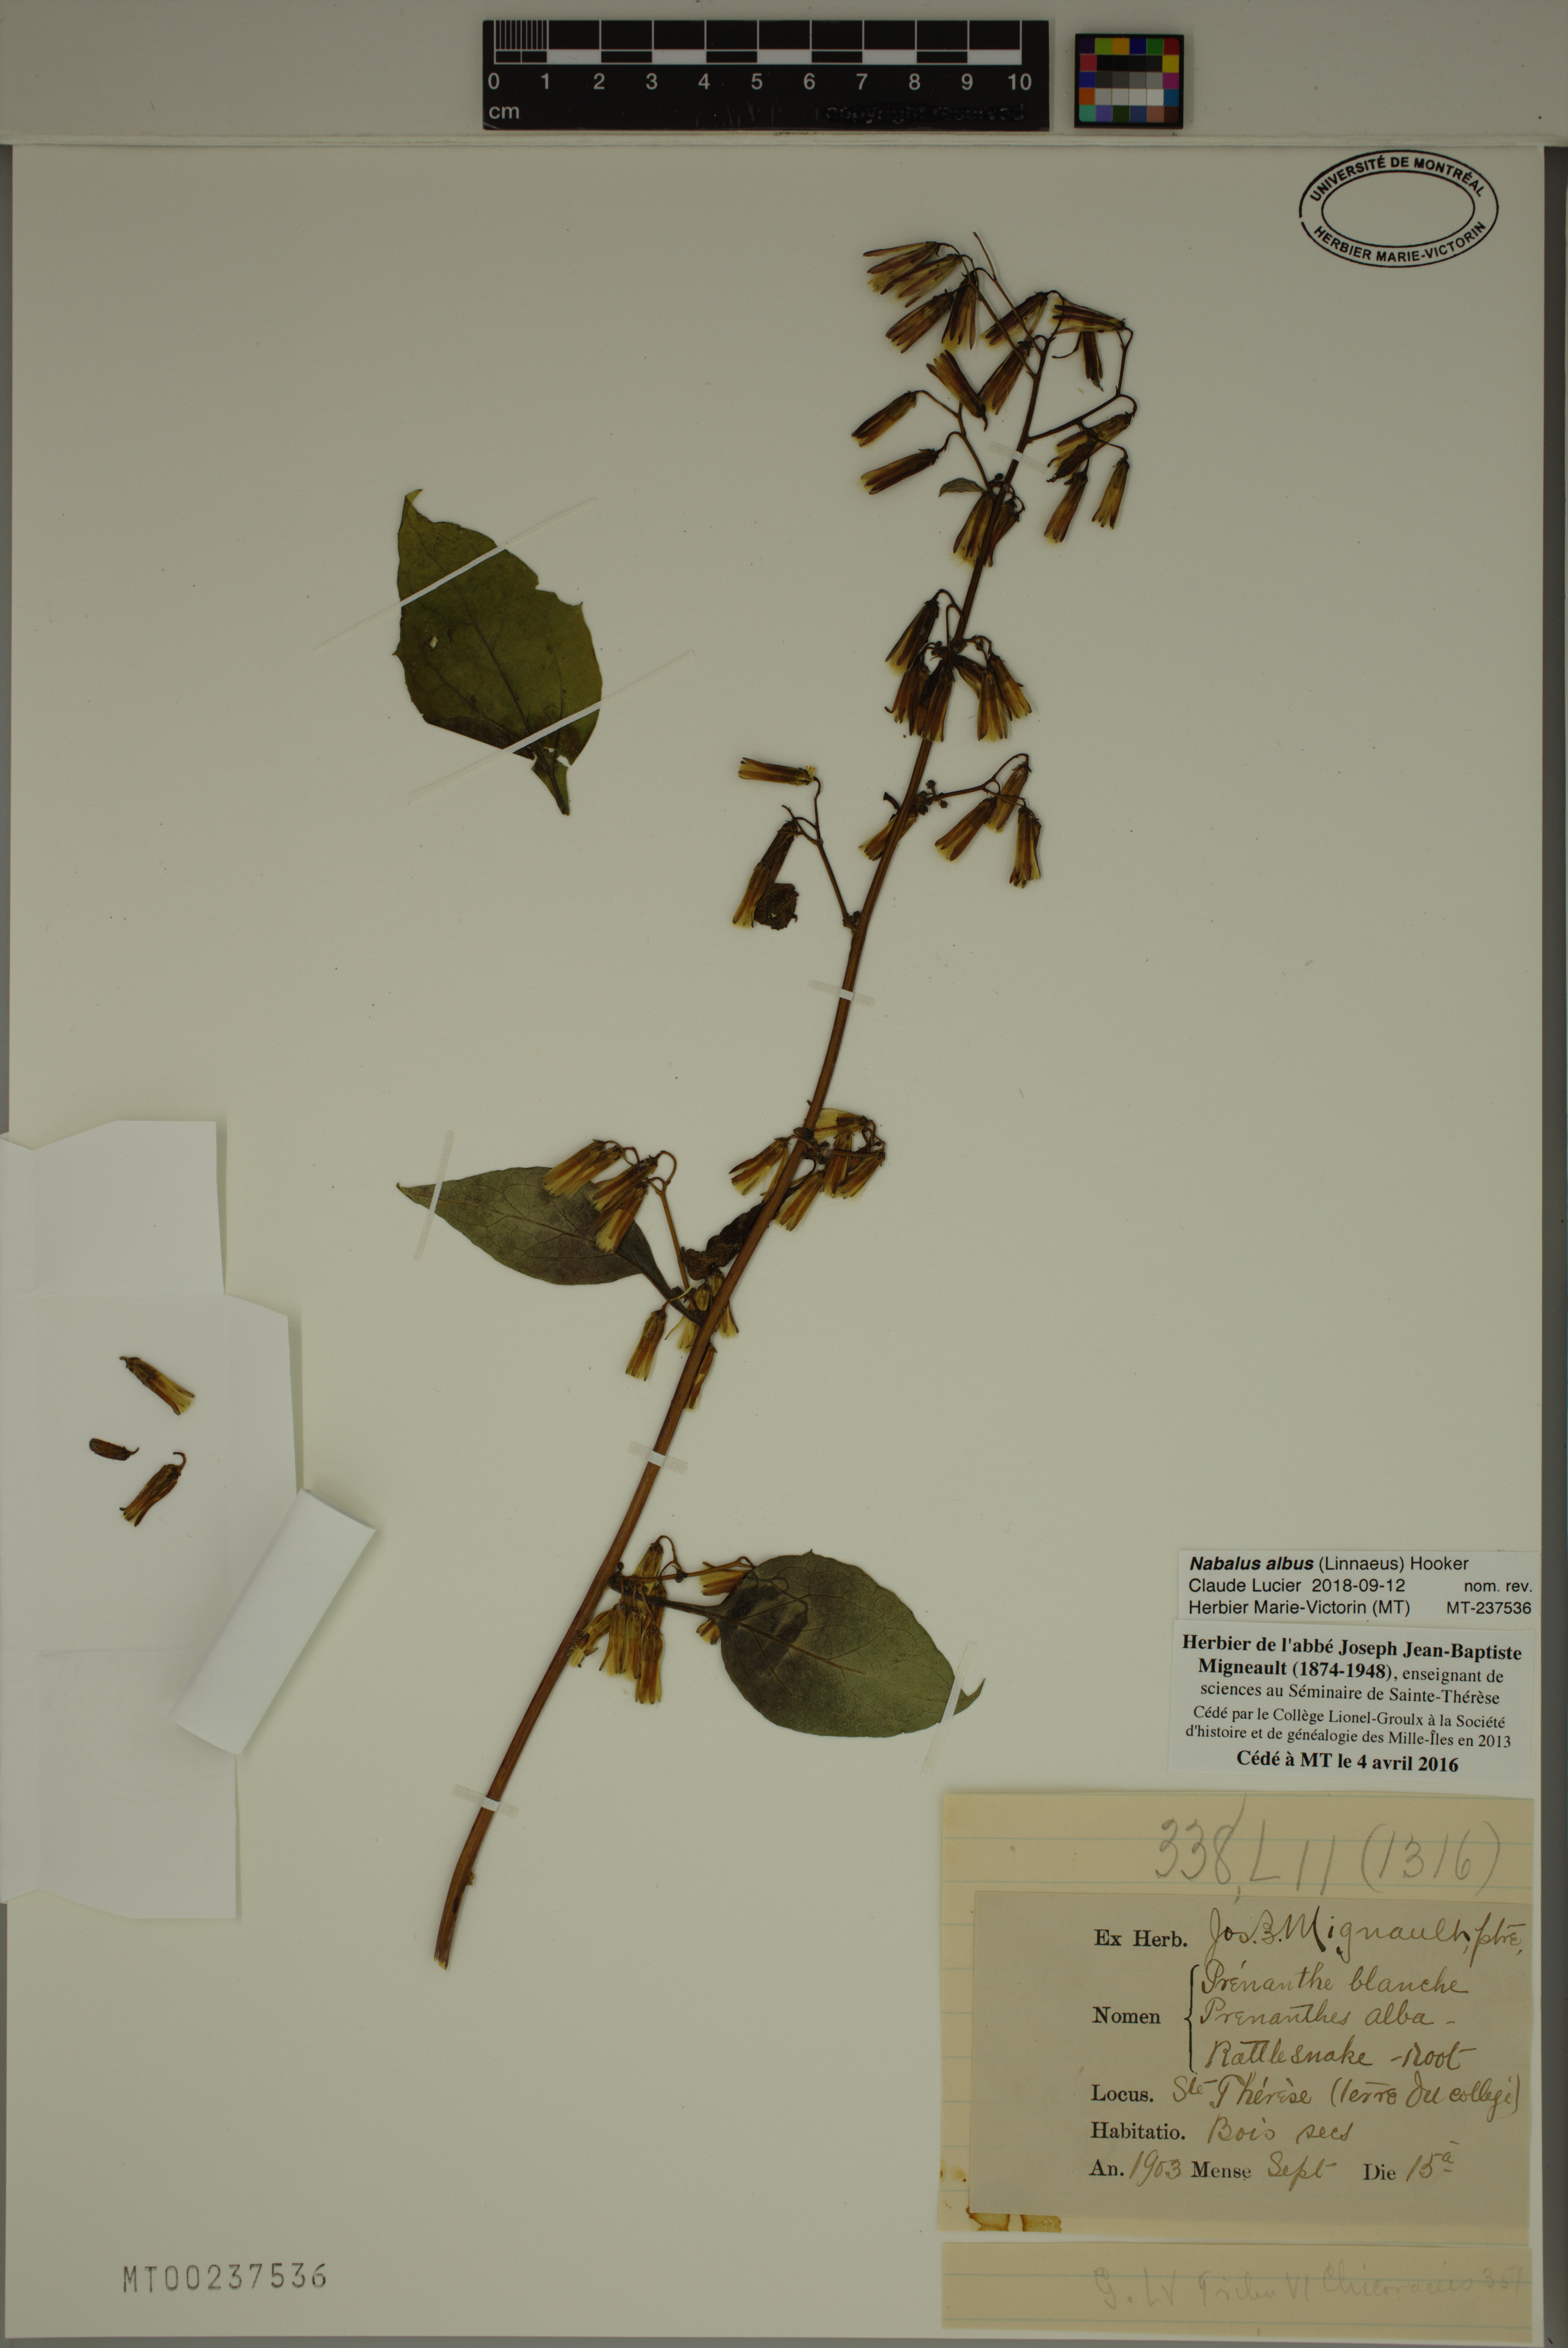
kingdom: Plantae
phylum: Tracheophyta
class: Magnoliopsida
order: Asterales
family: Asteraceae
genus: Nabalus
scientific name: Nabalus albus
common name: White rattlesnakeroot
